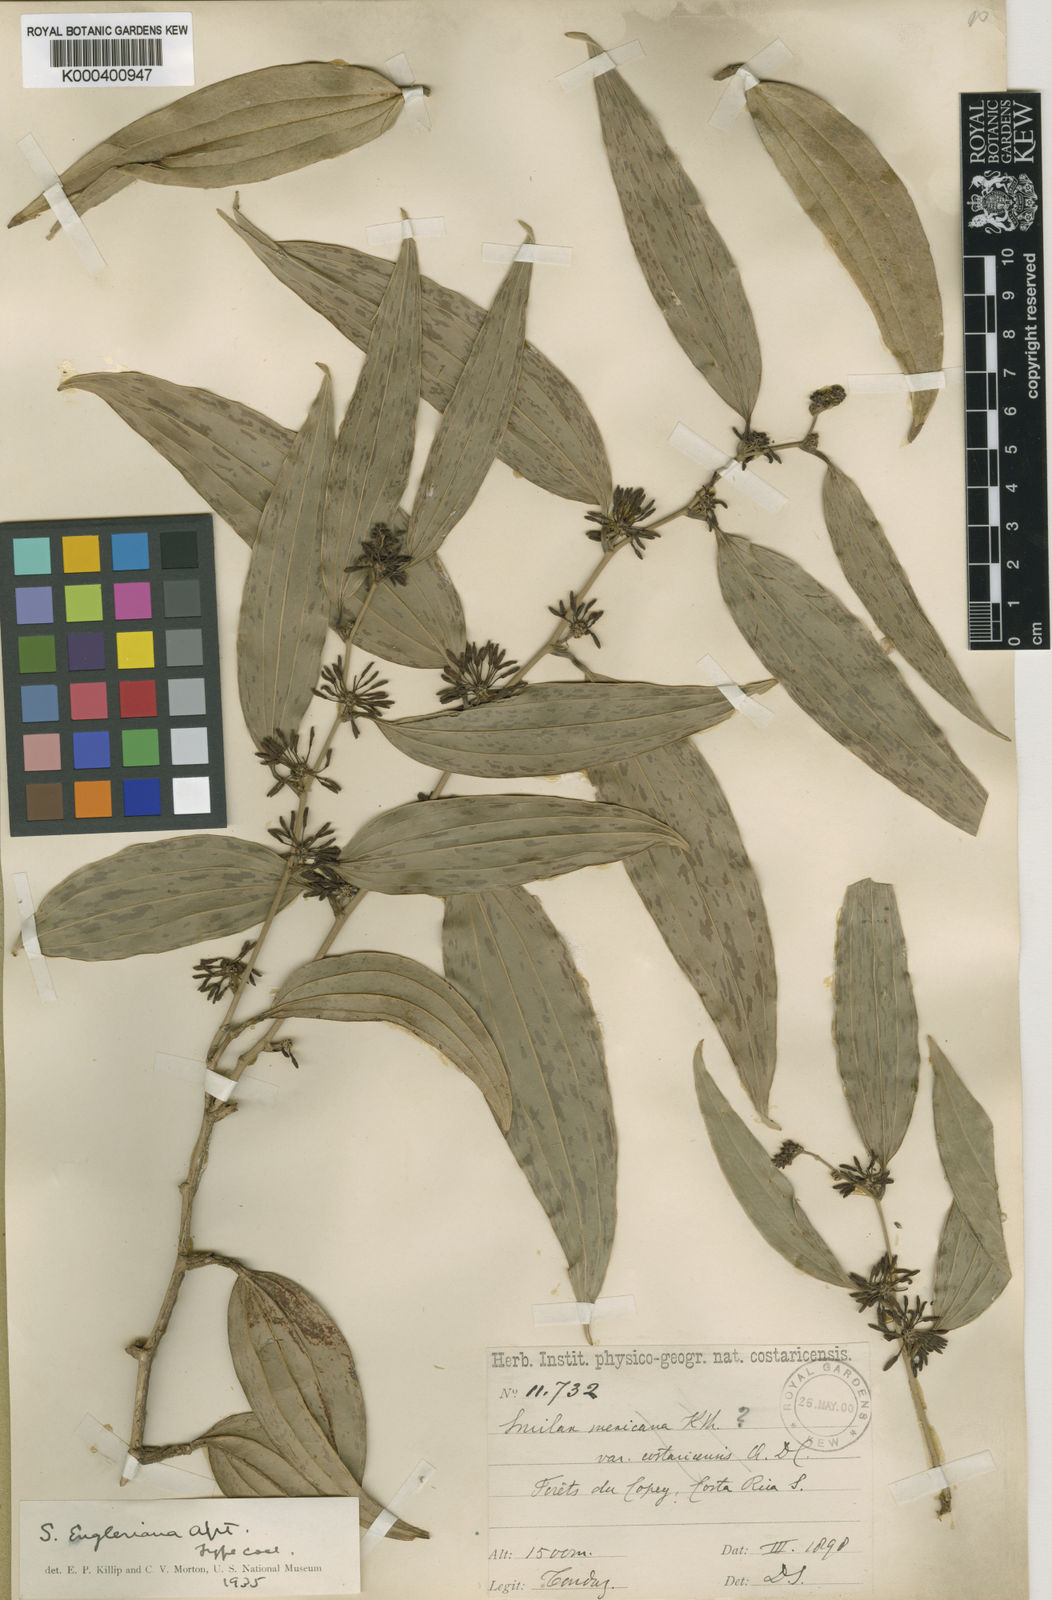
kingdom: Plantae
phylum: Tracheophyta
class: Liliopsida
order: Liliales
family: Smilacaceae
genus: Smilax
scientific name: Smilax domingensis
